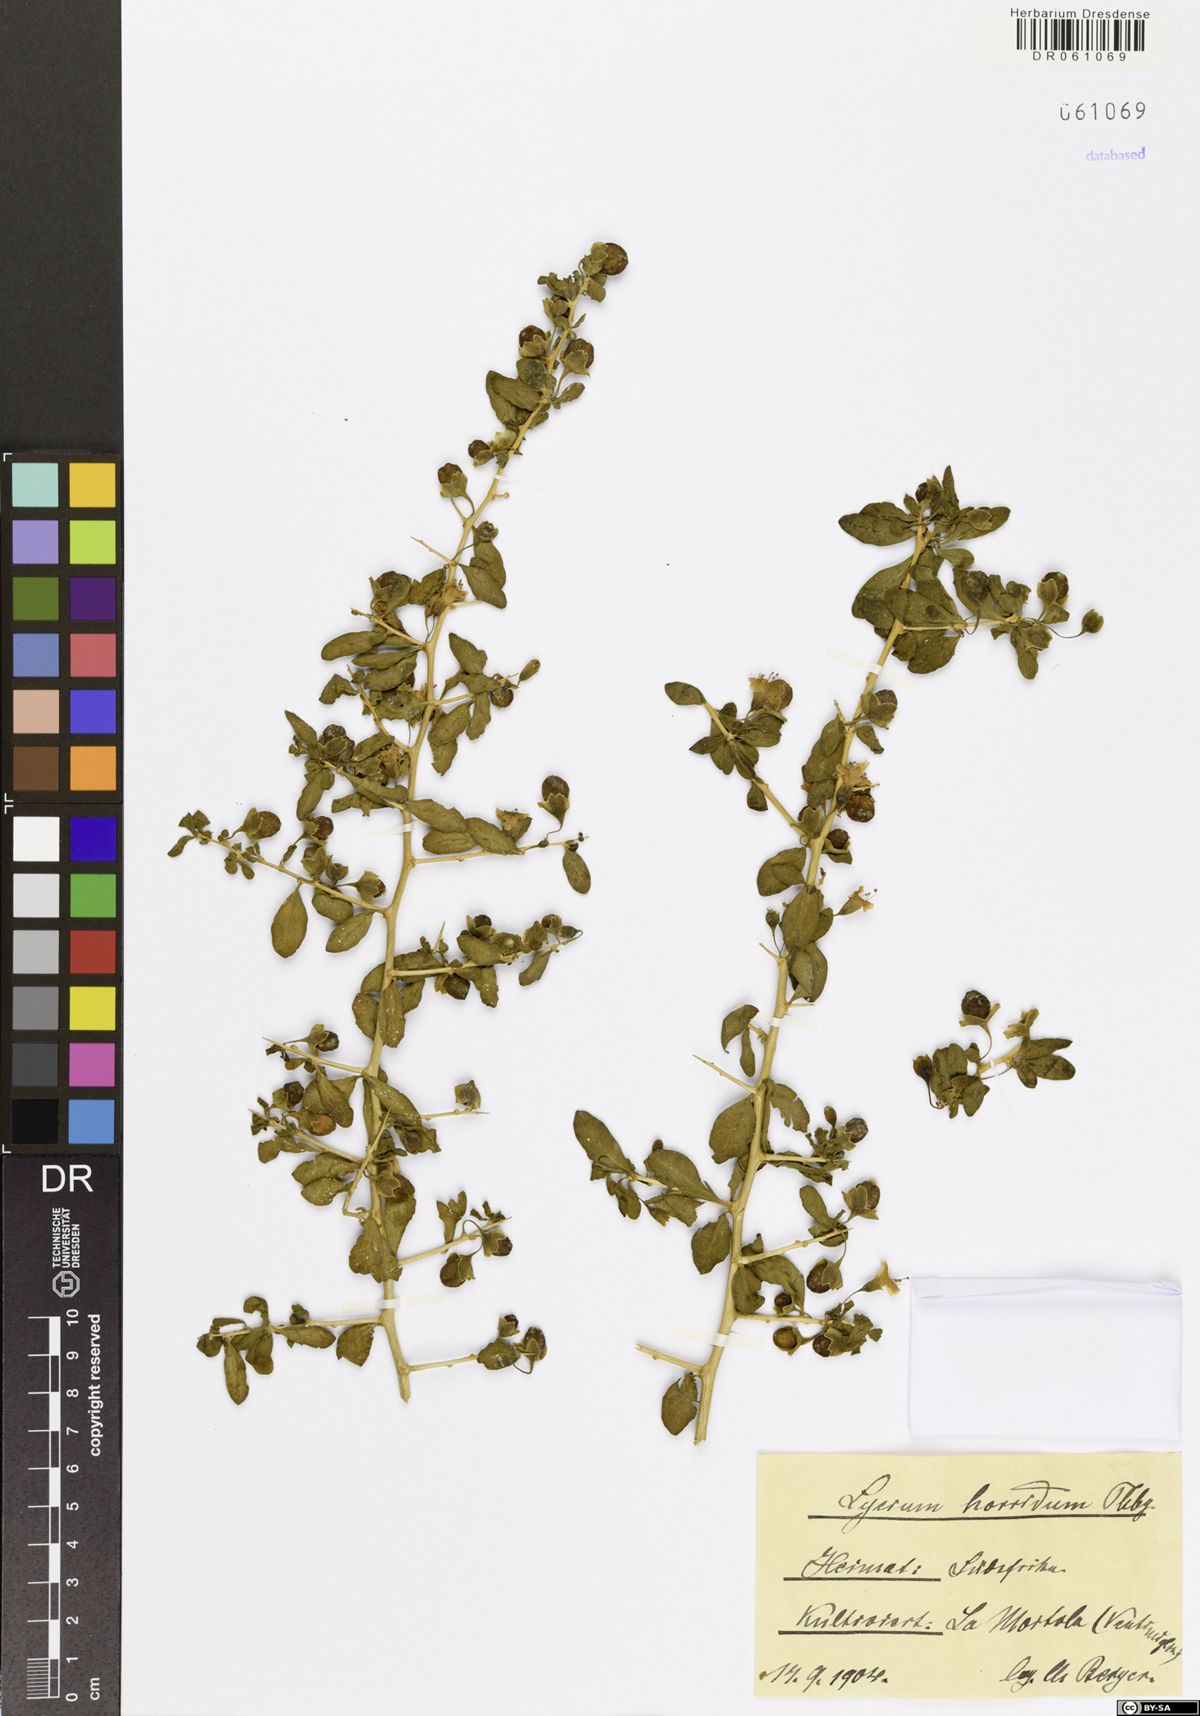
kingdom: Plantae
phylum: Tracheophyta
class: Magnoliopsida
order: Solanales
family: Solanaceae
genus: Lycium
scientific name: Lycium horridum
